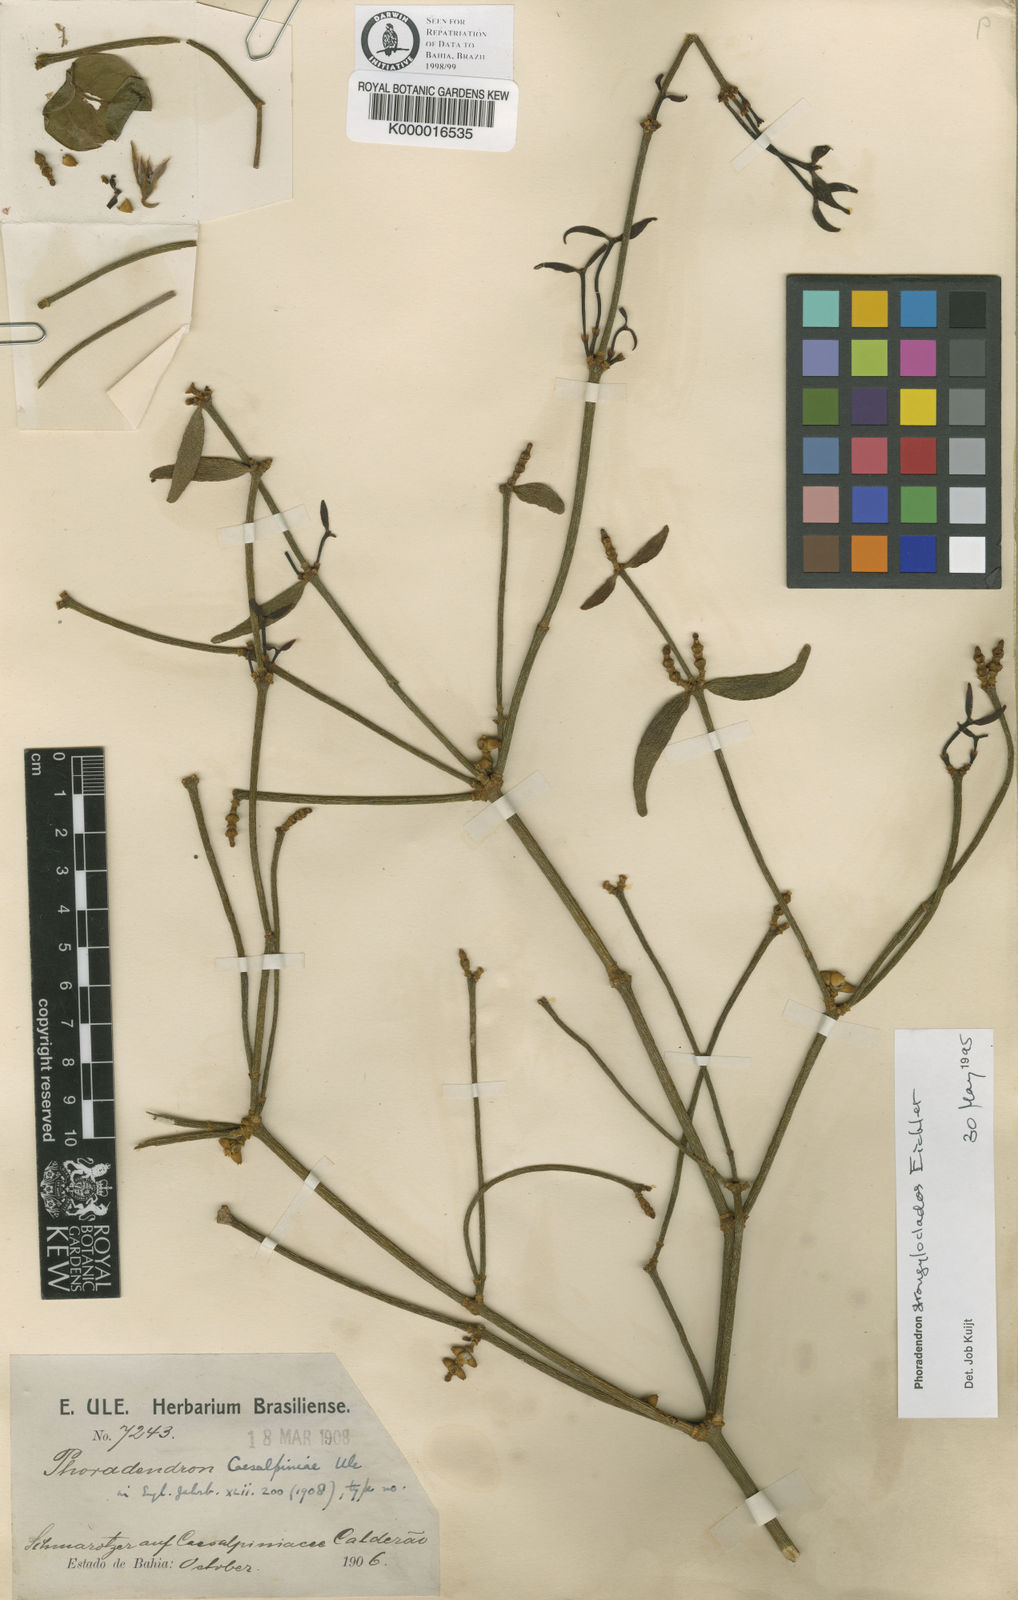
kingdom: Plantae
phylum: Tracheophyta
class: Magnoliopsida
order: Santalales
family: Viscaceae
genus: Phoradendron
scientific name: Phoradendron strongyloclados
